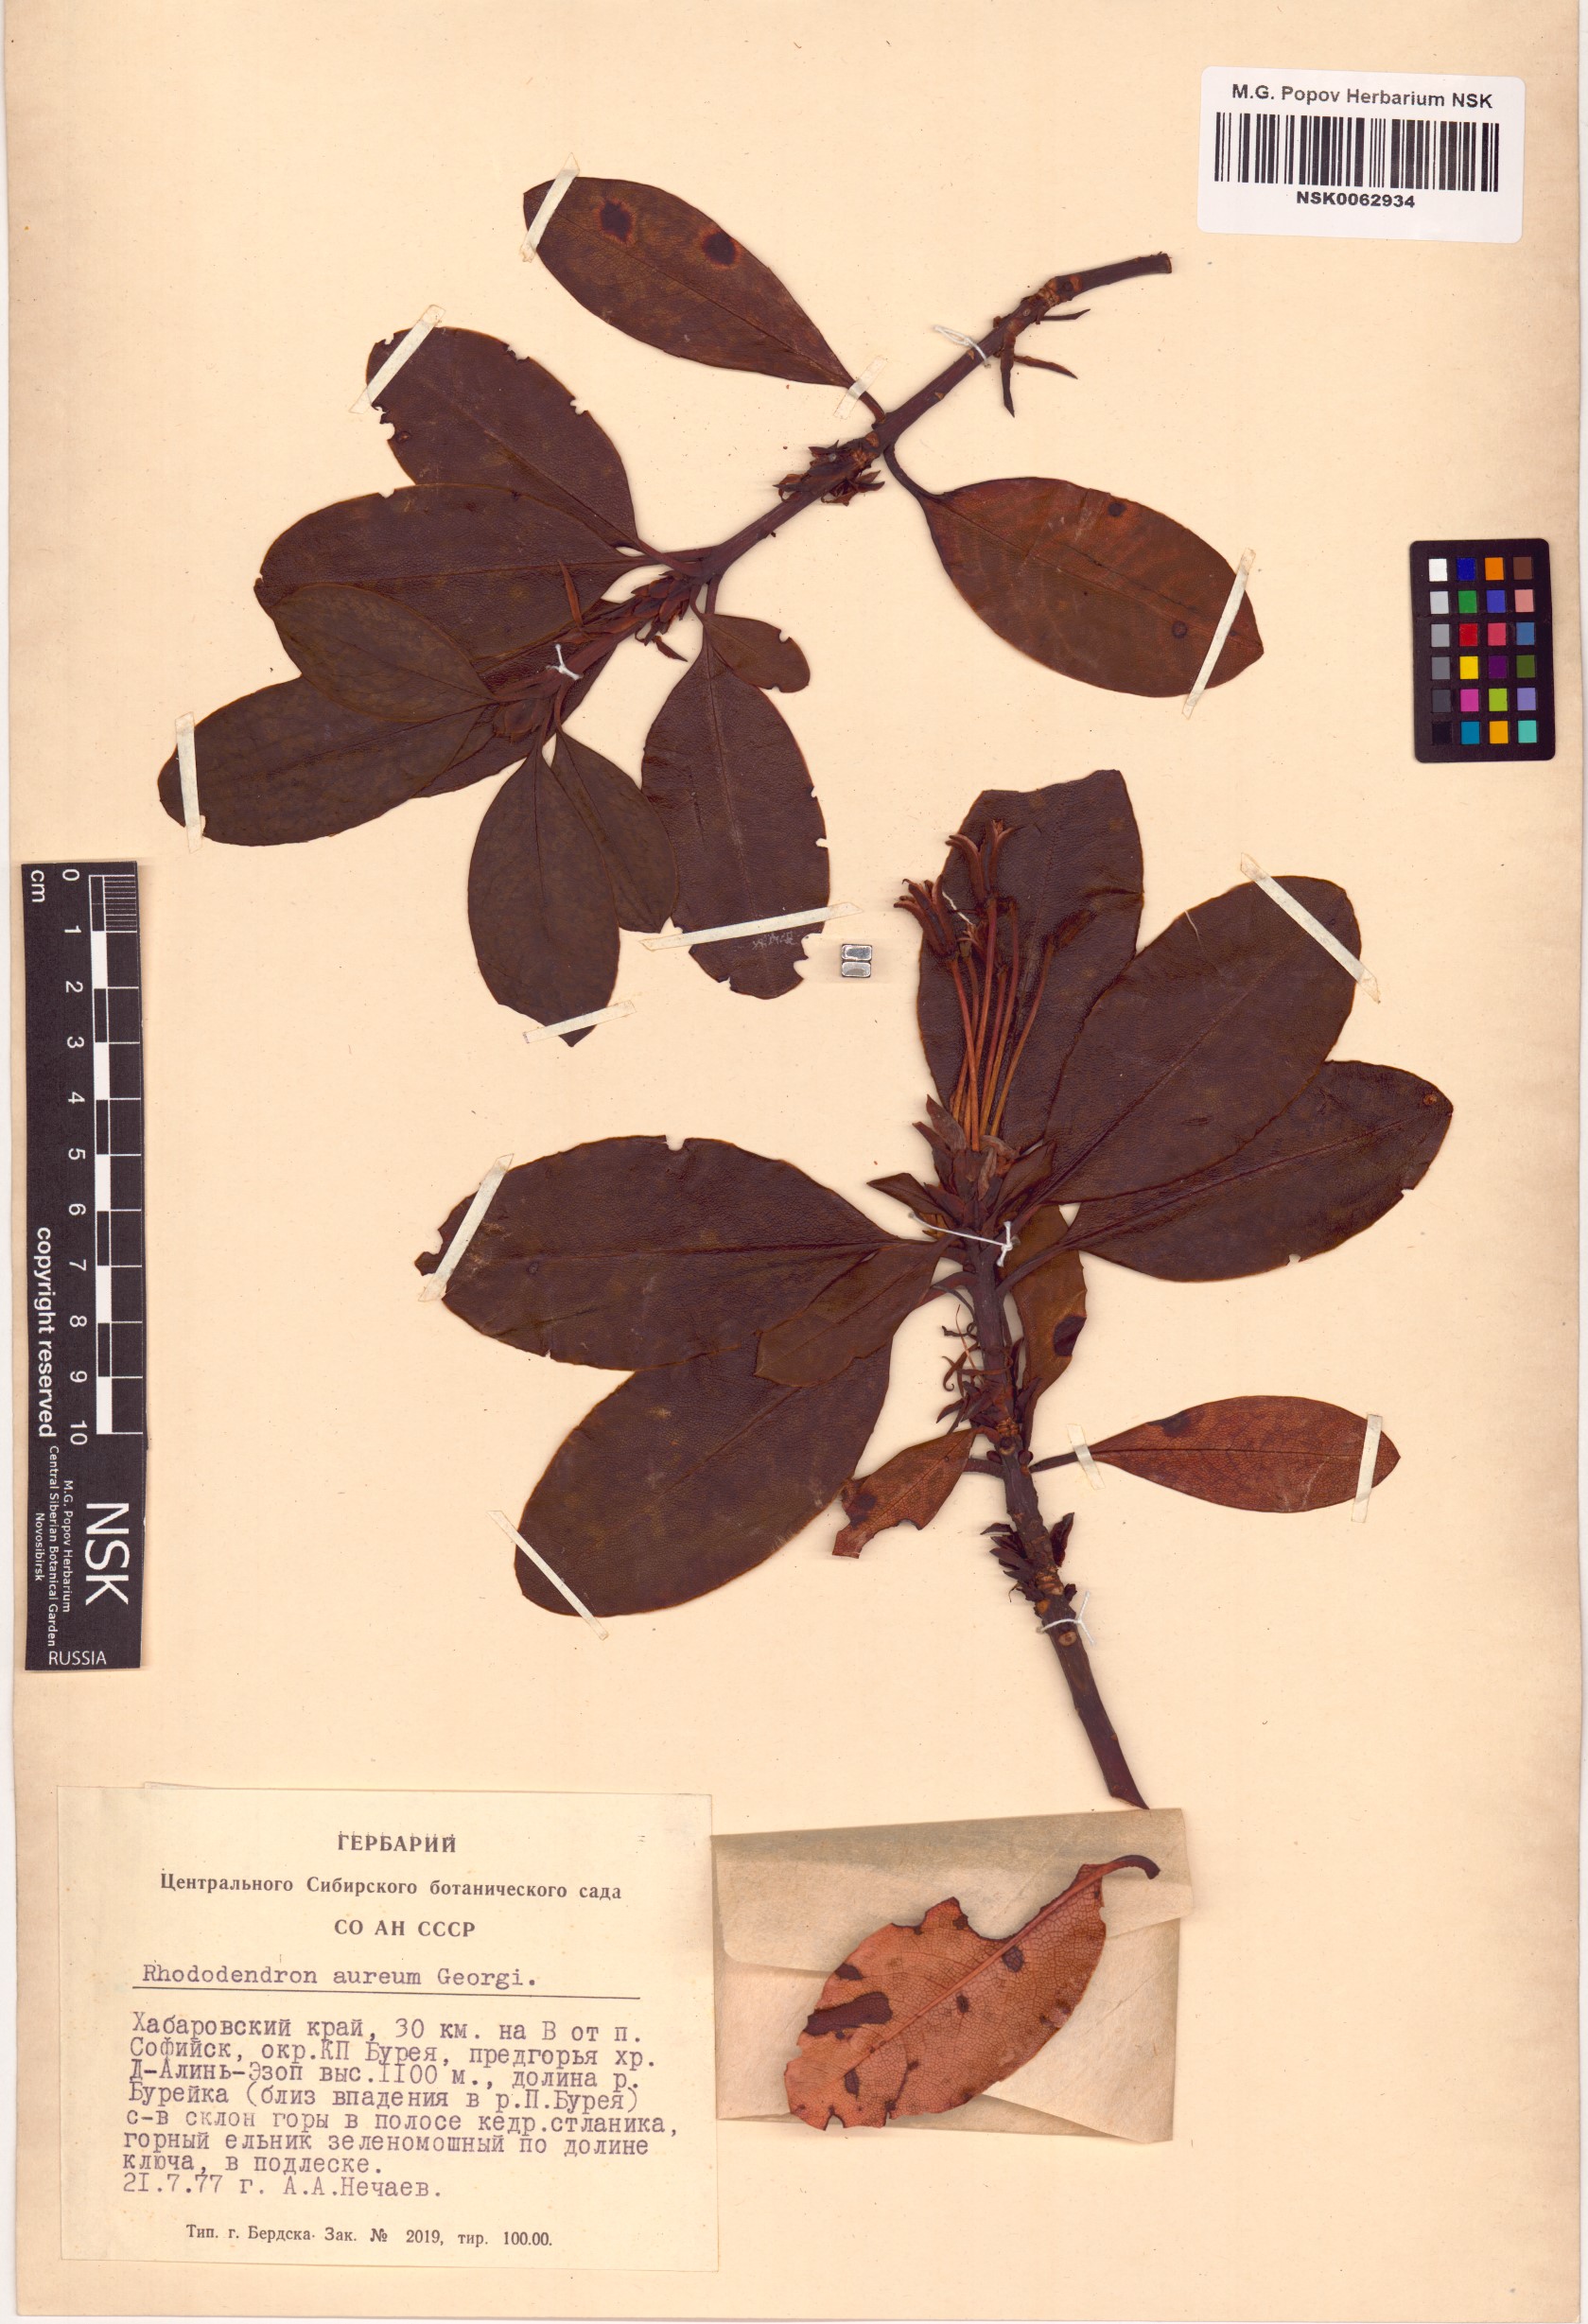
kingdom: Plantae
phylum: Tracheophyta
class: Magnoliopsida
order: Ericales
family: Ericaceae
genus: Rhododendron
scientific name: Rhododendron aureum
